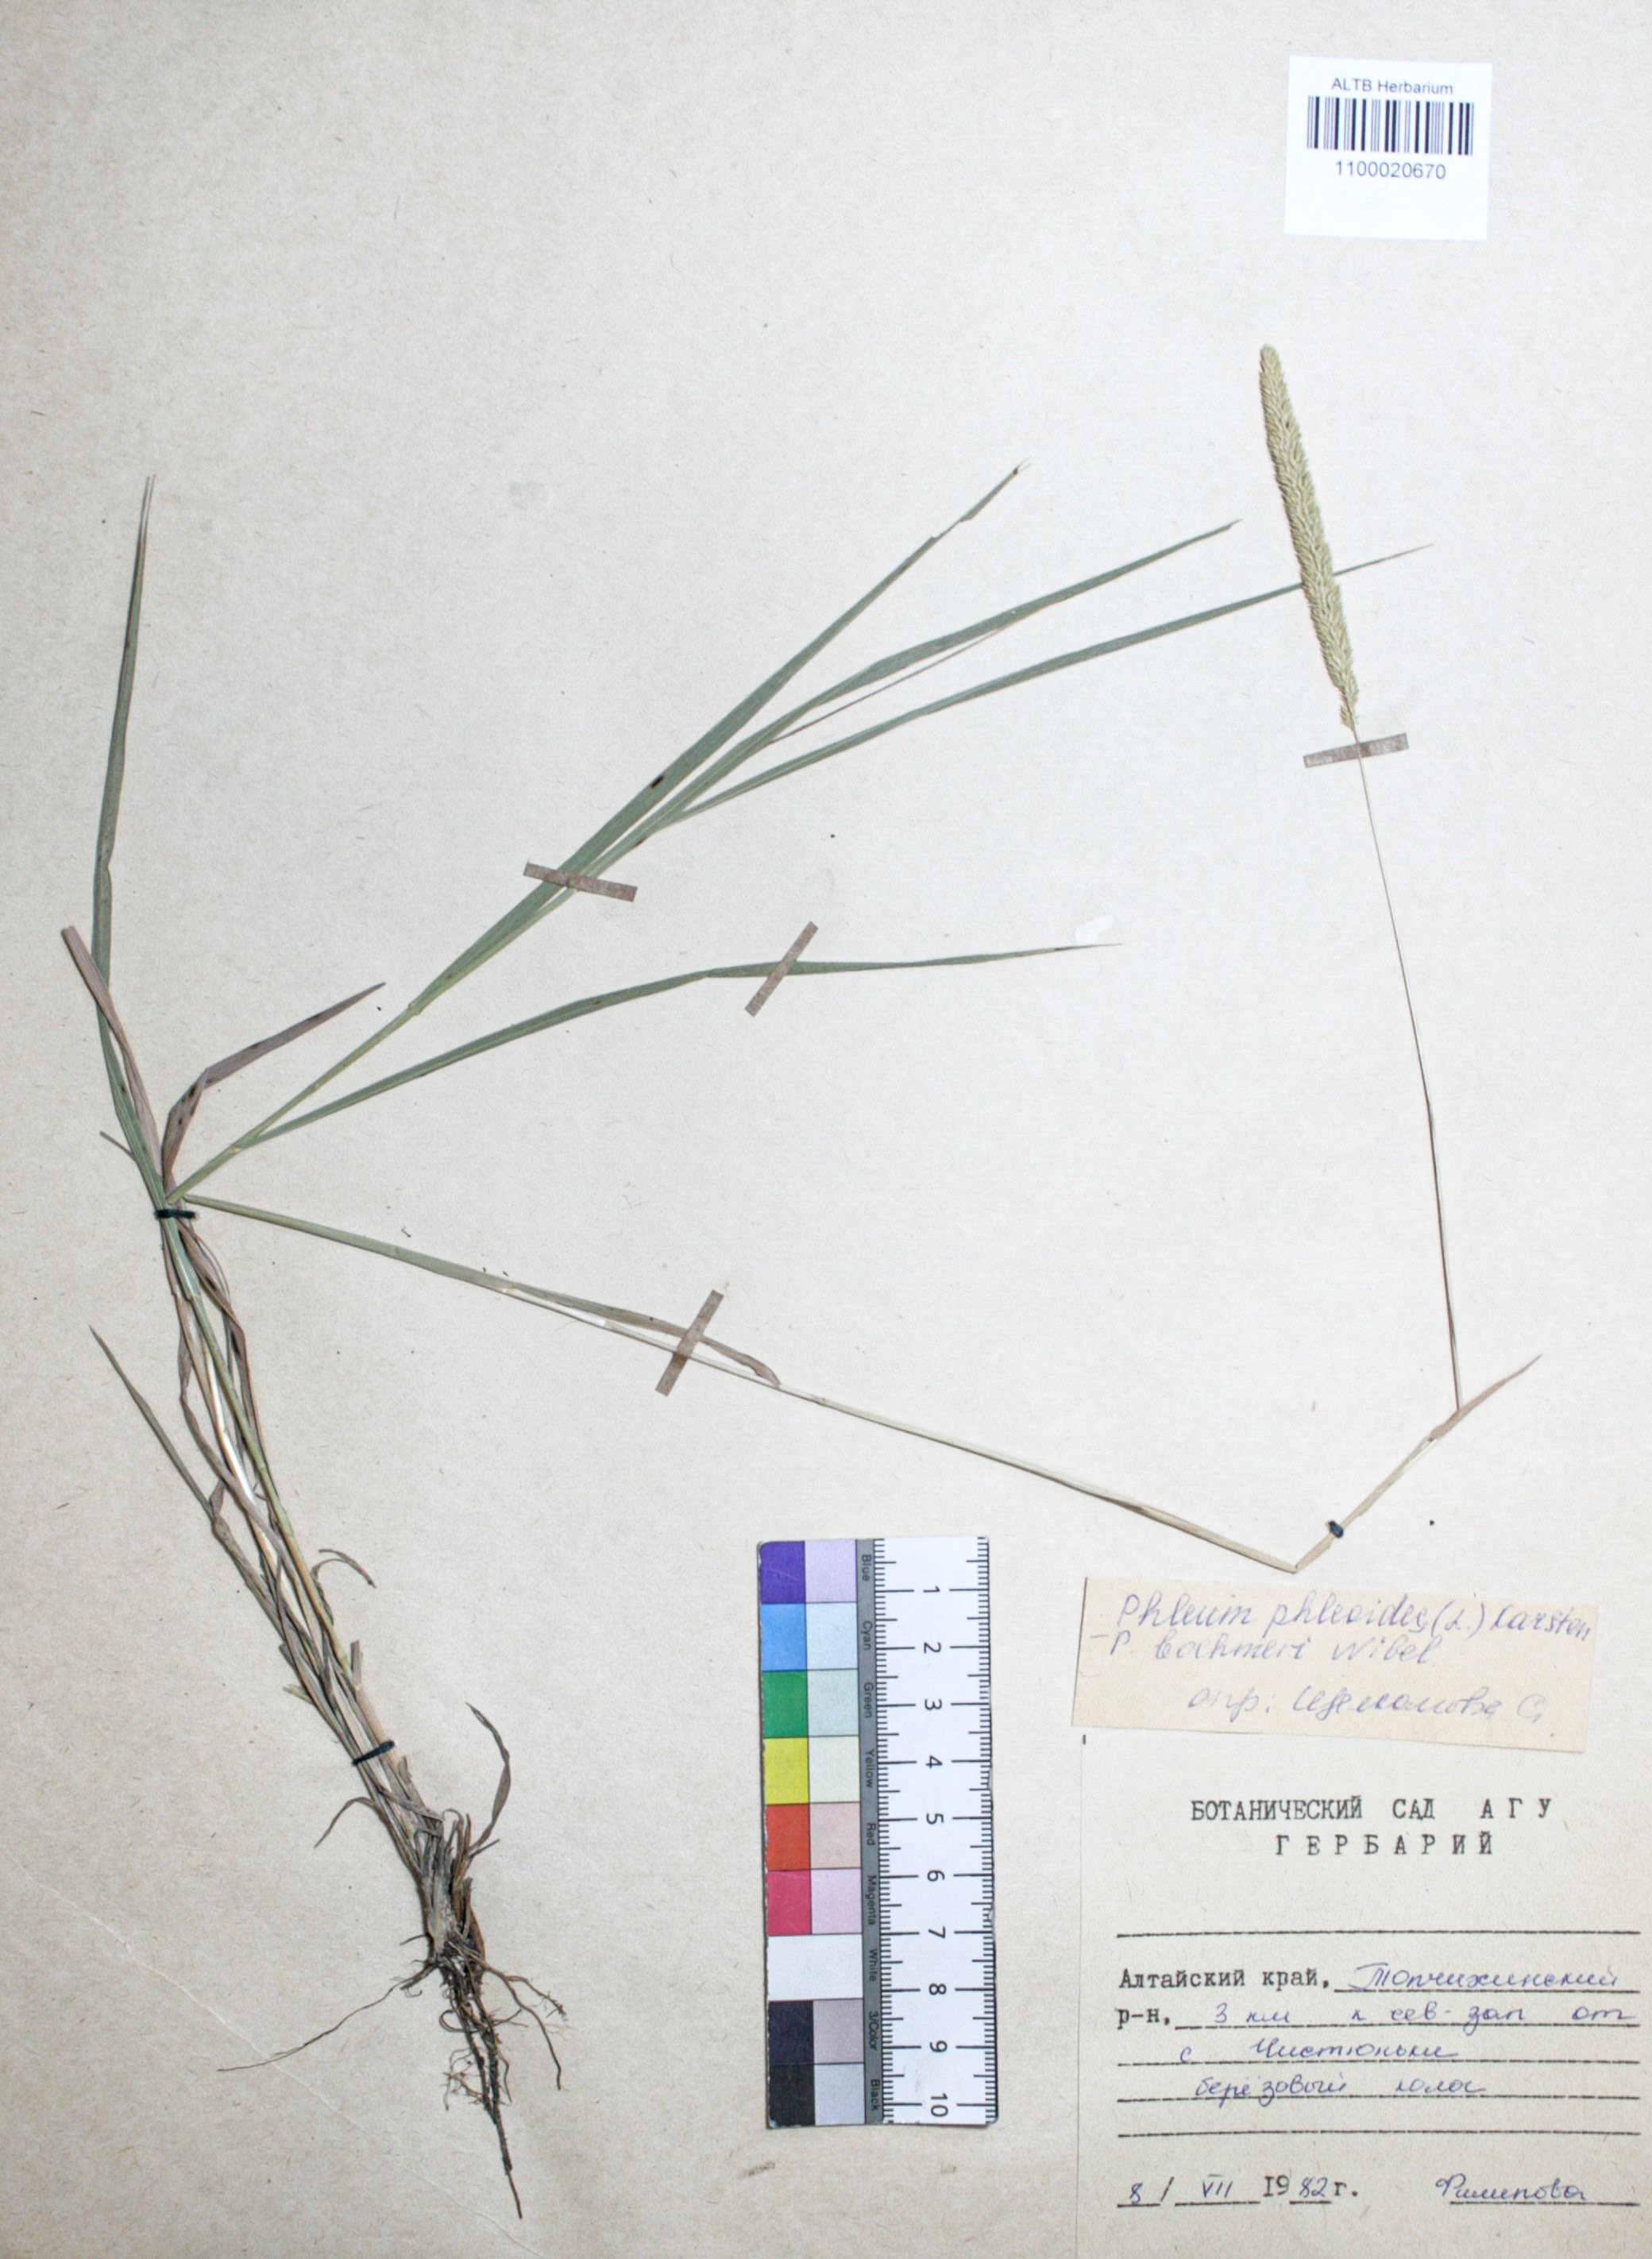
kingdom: Plantae
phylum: Tracheophyta
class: Liliopsida
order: Poales
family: Poaceae
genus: Phleum
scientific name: Phleum phleoides
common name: Purple-stem cat's-tail
